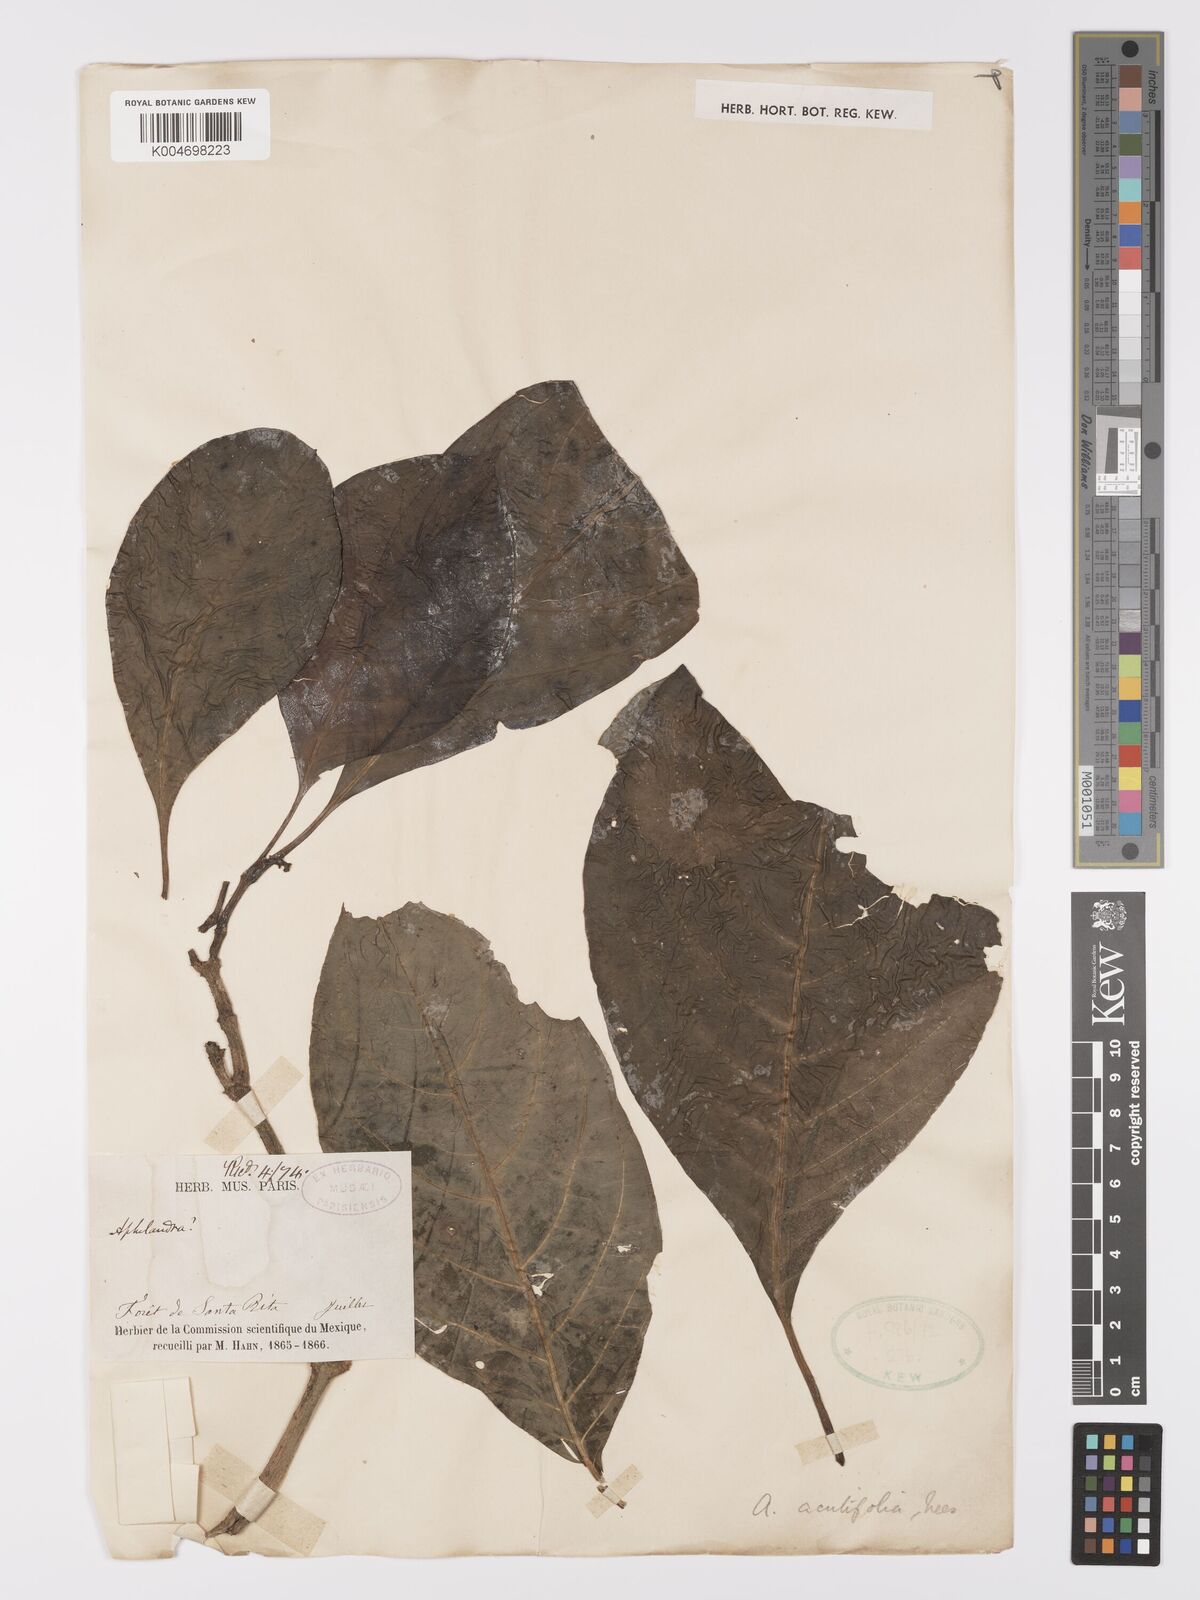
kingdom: Plantae
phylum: Tracheophyta
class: Magnoliopsida
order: Lamiales
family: Acanthaceae
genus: Aphelandra
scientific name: Aphelandra aurantiaca
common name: Fiery spike
